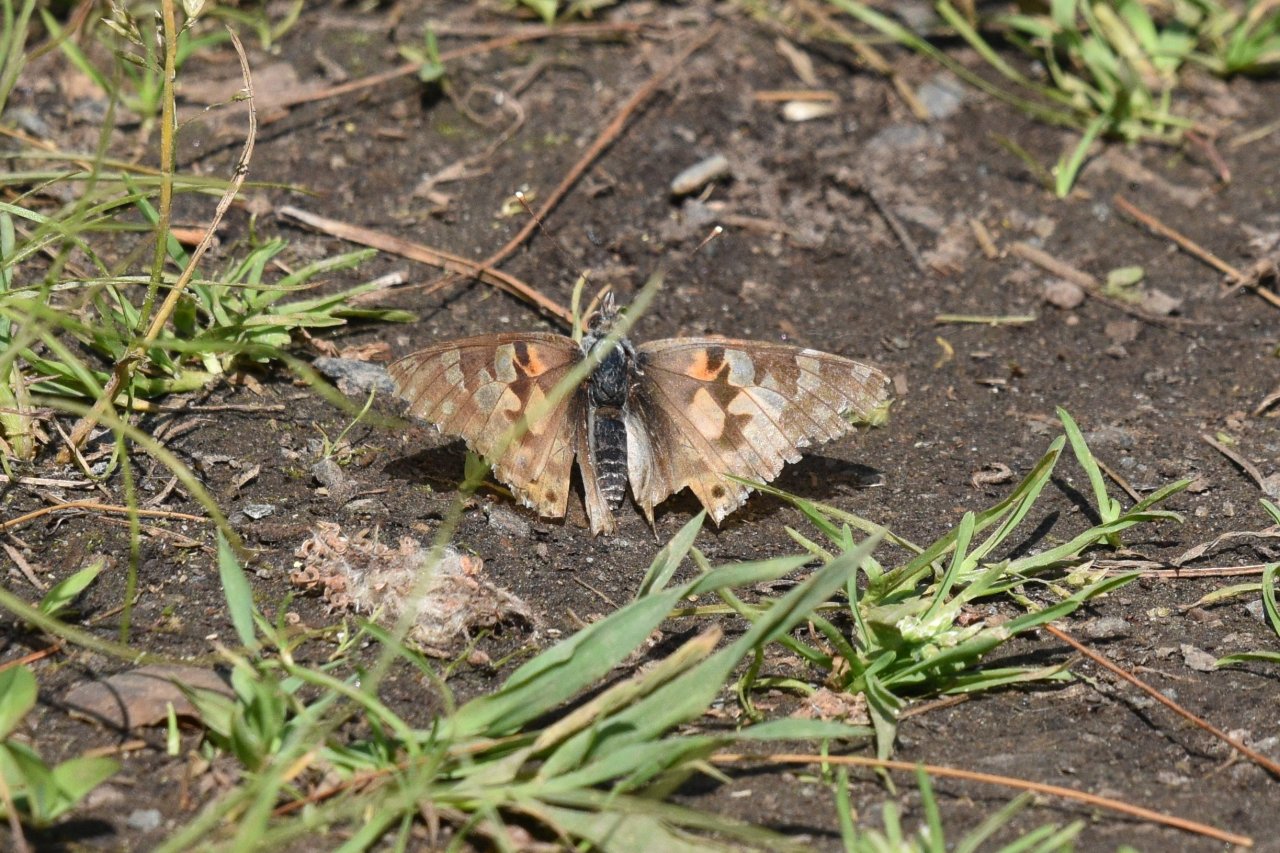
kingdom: Animalia
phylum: Arthropoda
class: Insecta
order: Lepidoptera
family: Nymphalidae
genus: Vanessa
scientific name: Vanessa cardui
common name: Painted Lady
